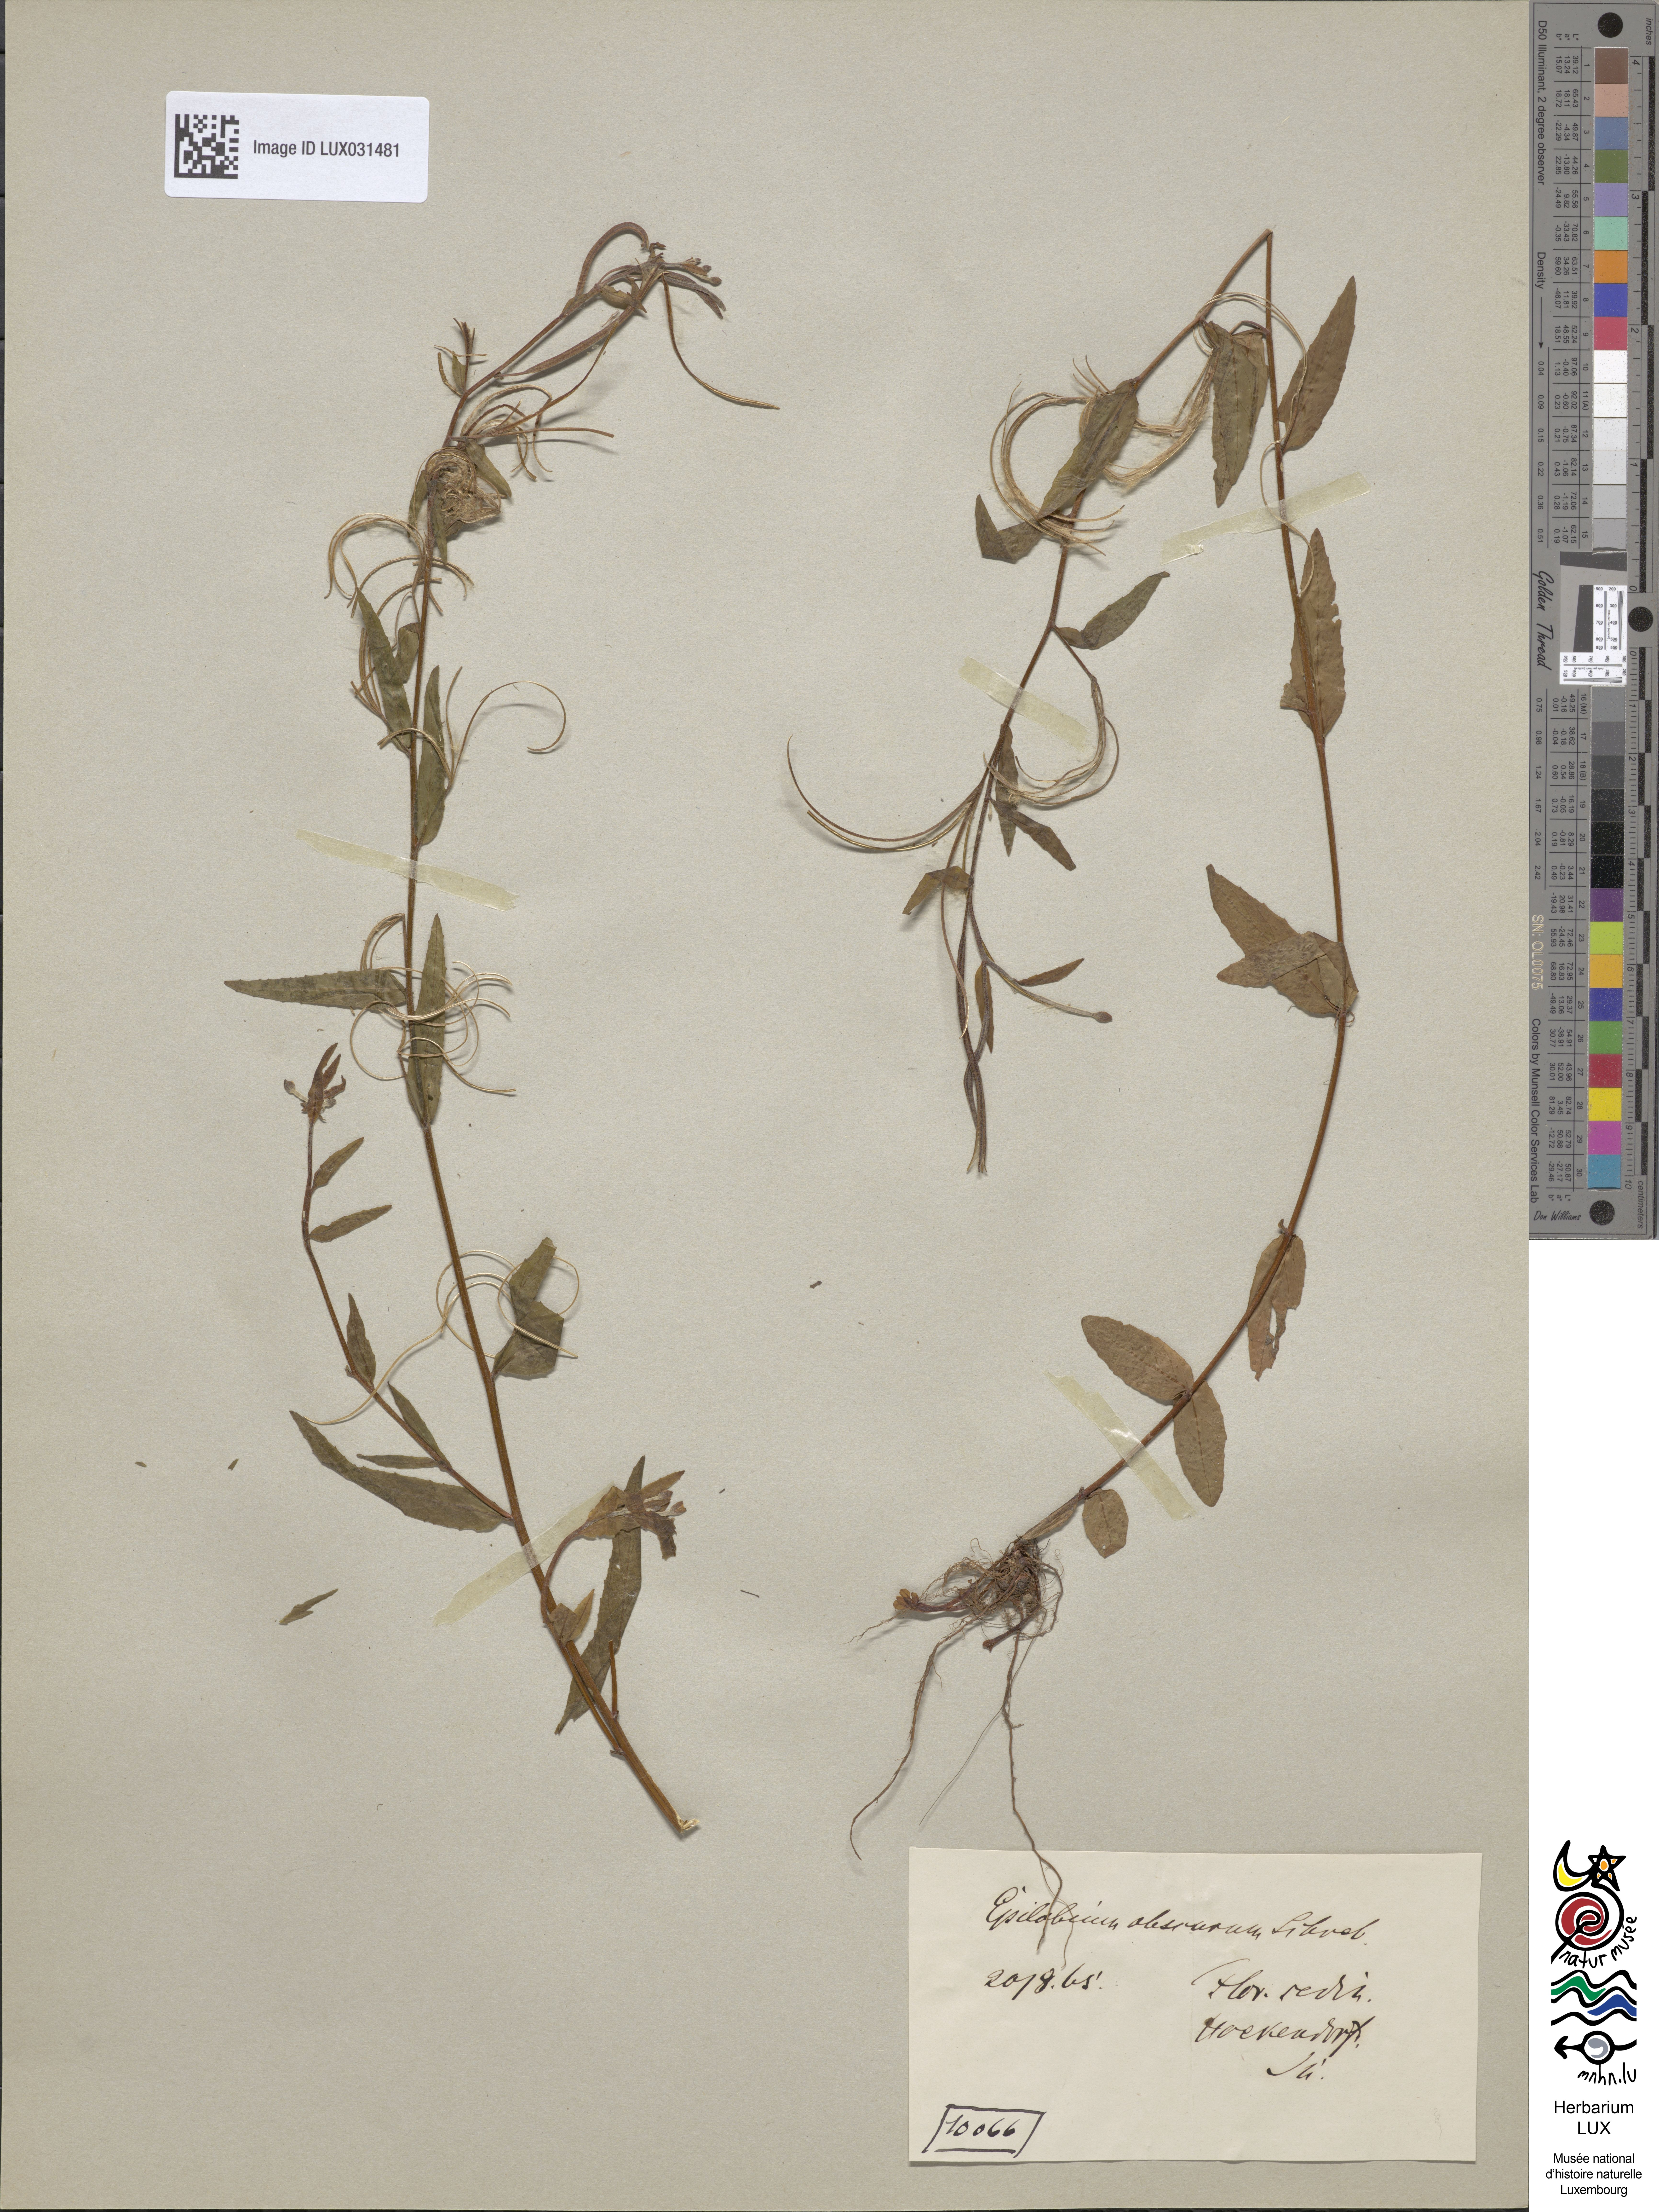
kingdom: Plantae
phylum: Tracheophyta
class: Magnoliopsida
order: Myrtales
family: Onagraceae
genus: Epilobium
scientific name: Epilobium obscurum
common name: Short-fruited willowherb
